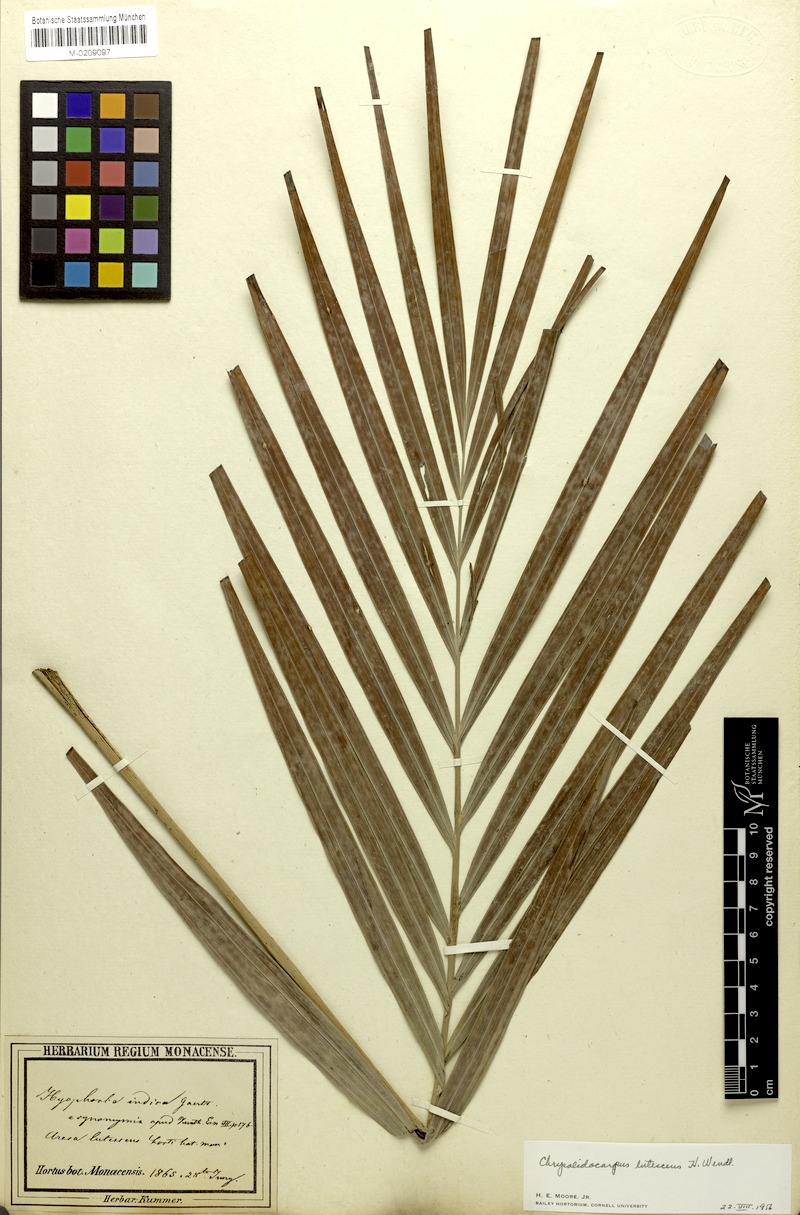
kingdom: Plantae
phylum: Tracheophyta
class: Liliopsida
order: Arecales
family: Arecaceae
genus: Dypsis
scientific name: Dypsis lutescens
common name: Yellow butterfly palm
